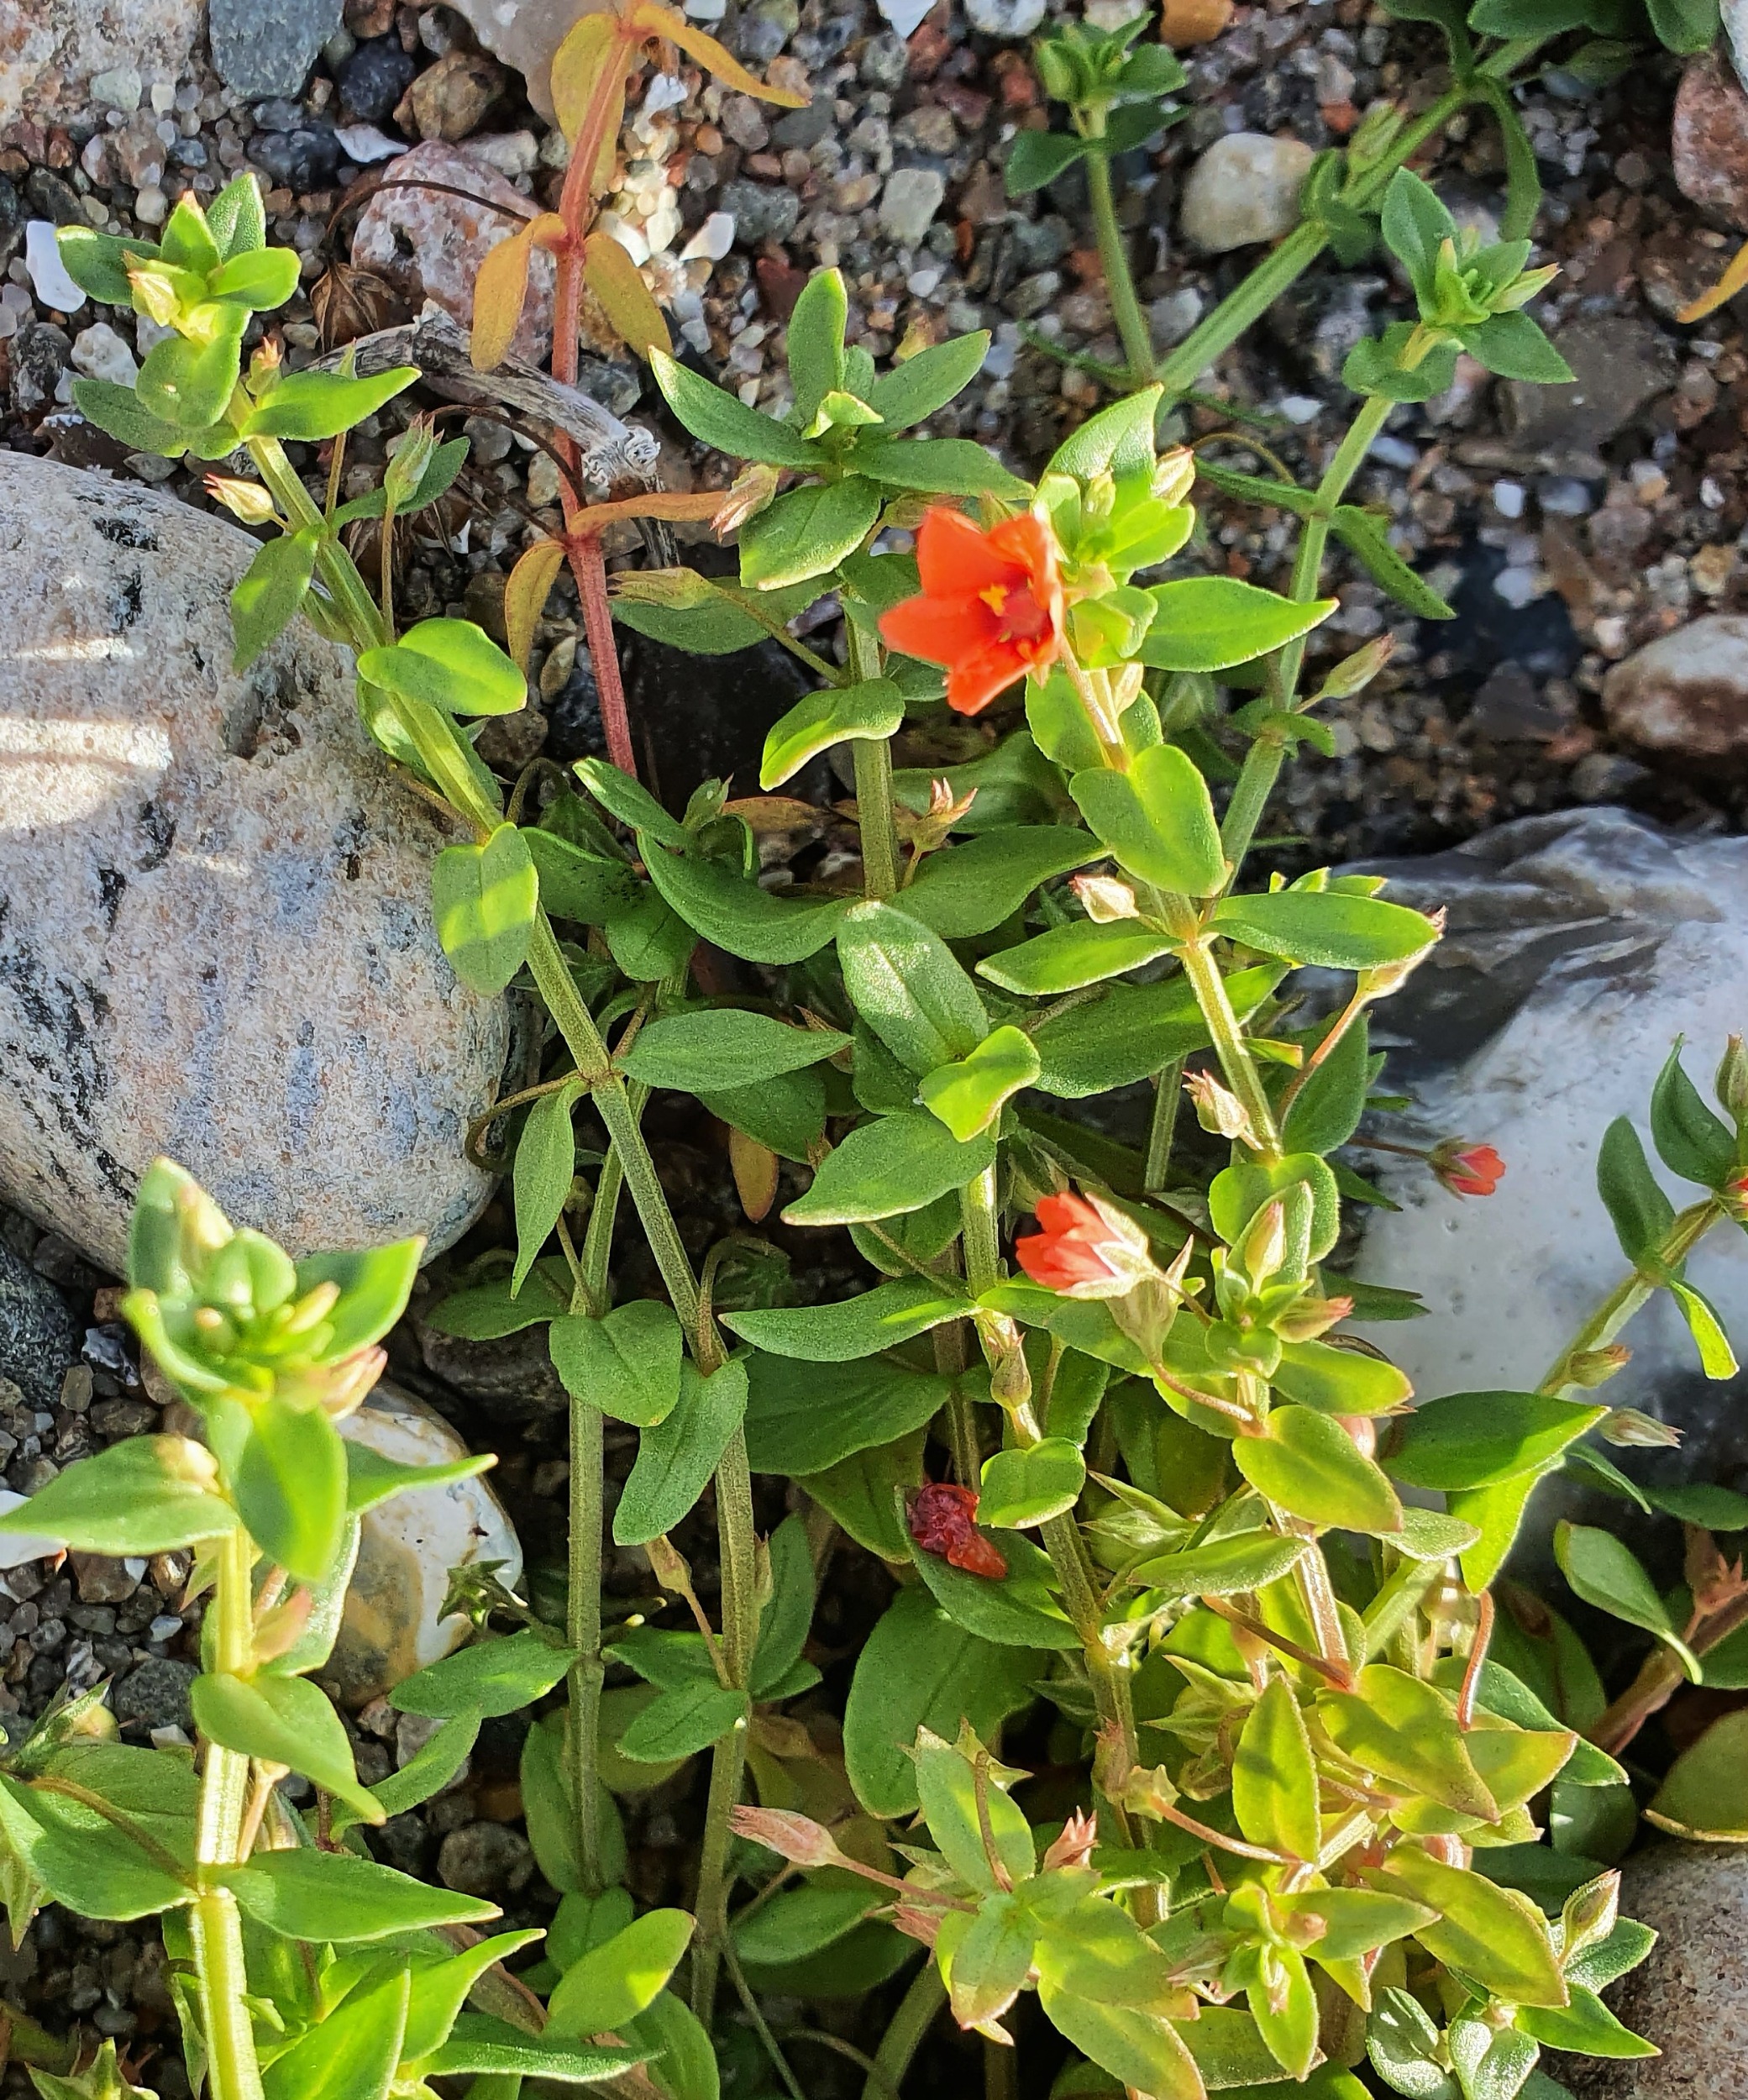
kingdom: Plantae
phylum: Tracheophyta
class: Magnoliopsida
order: Ericales
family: Primulaceae
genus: Lysimachia
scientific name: Lysimachia arvensis
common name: Rød arve
